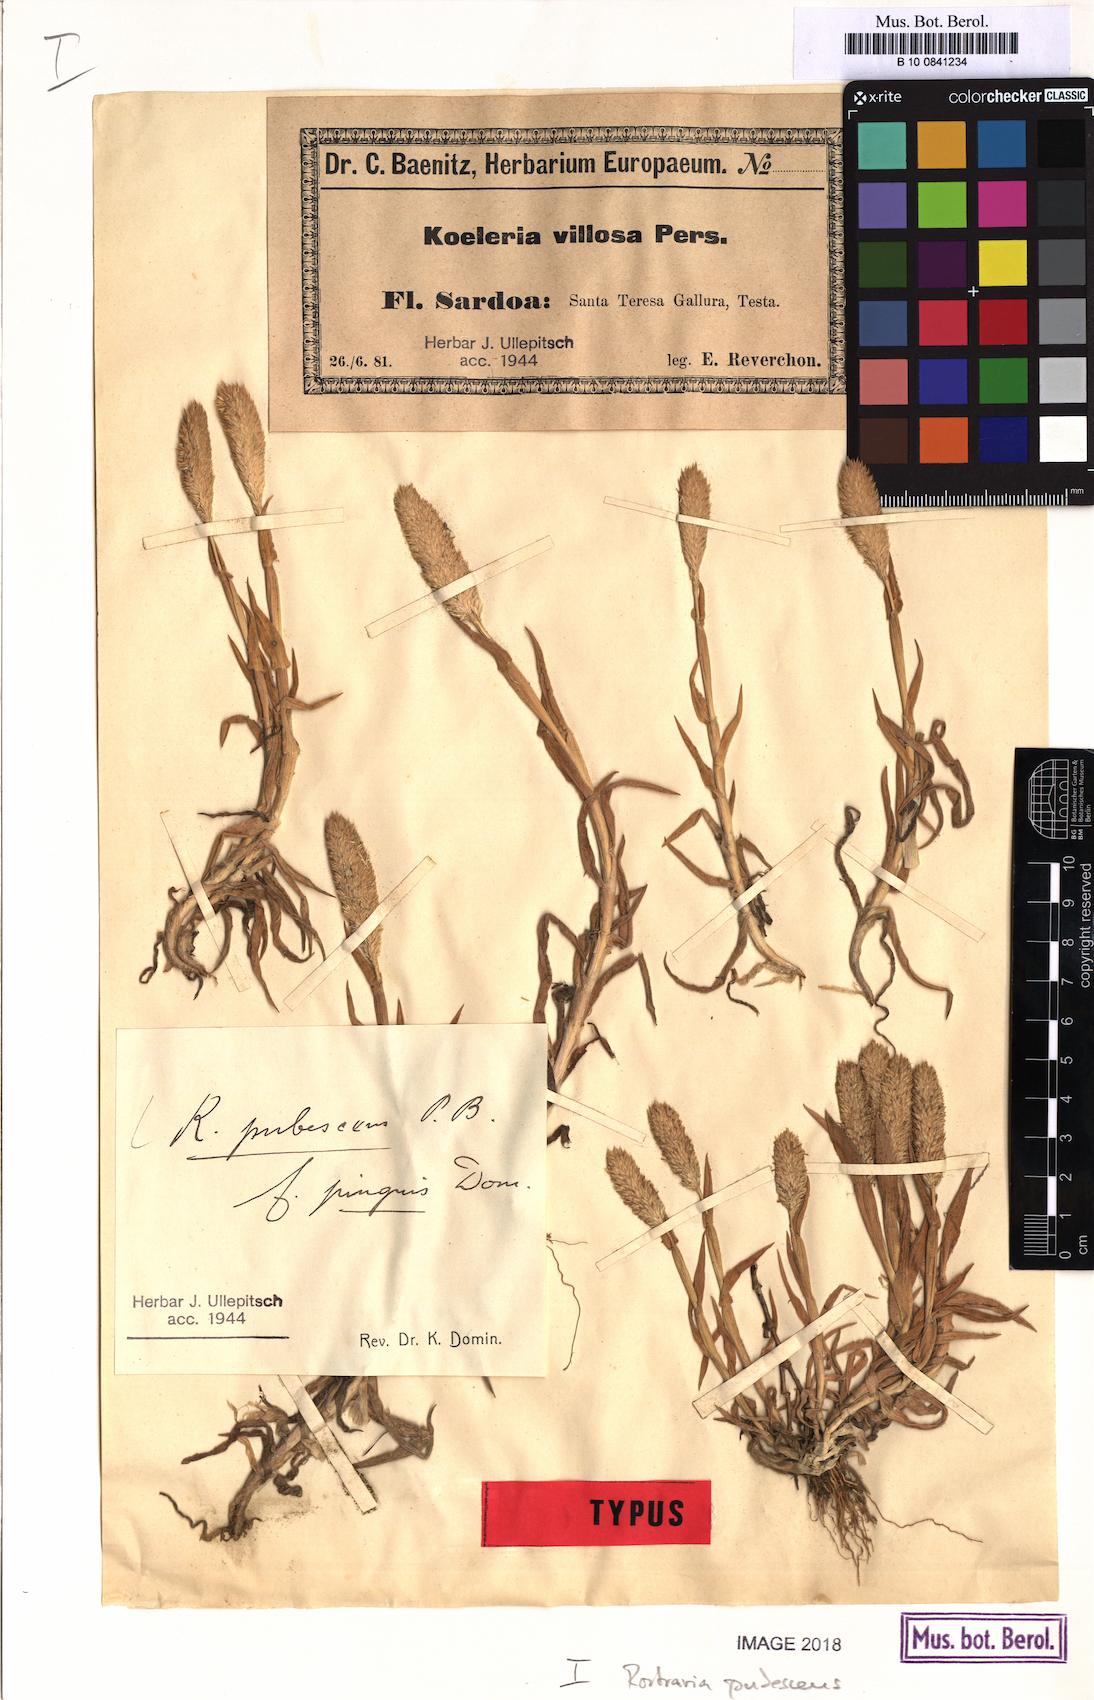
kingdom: Plantae
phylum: Tracheophyta
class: Liliopsida
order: Poales
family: Poaceae
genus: Rostraria
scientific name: Rostraria cristata
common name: Mediterranean hair-grass
